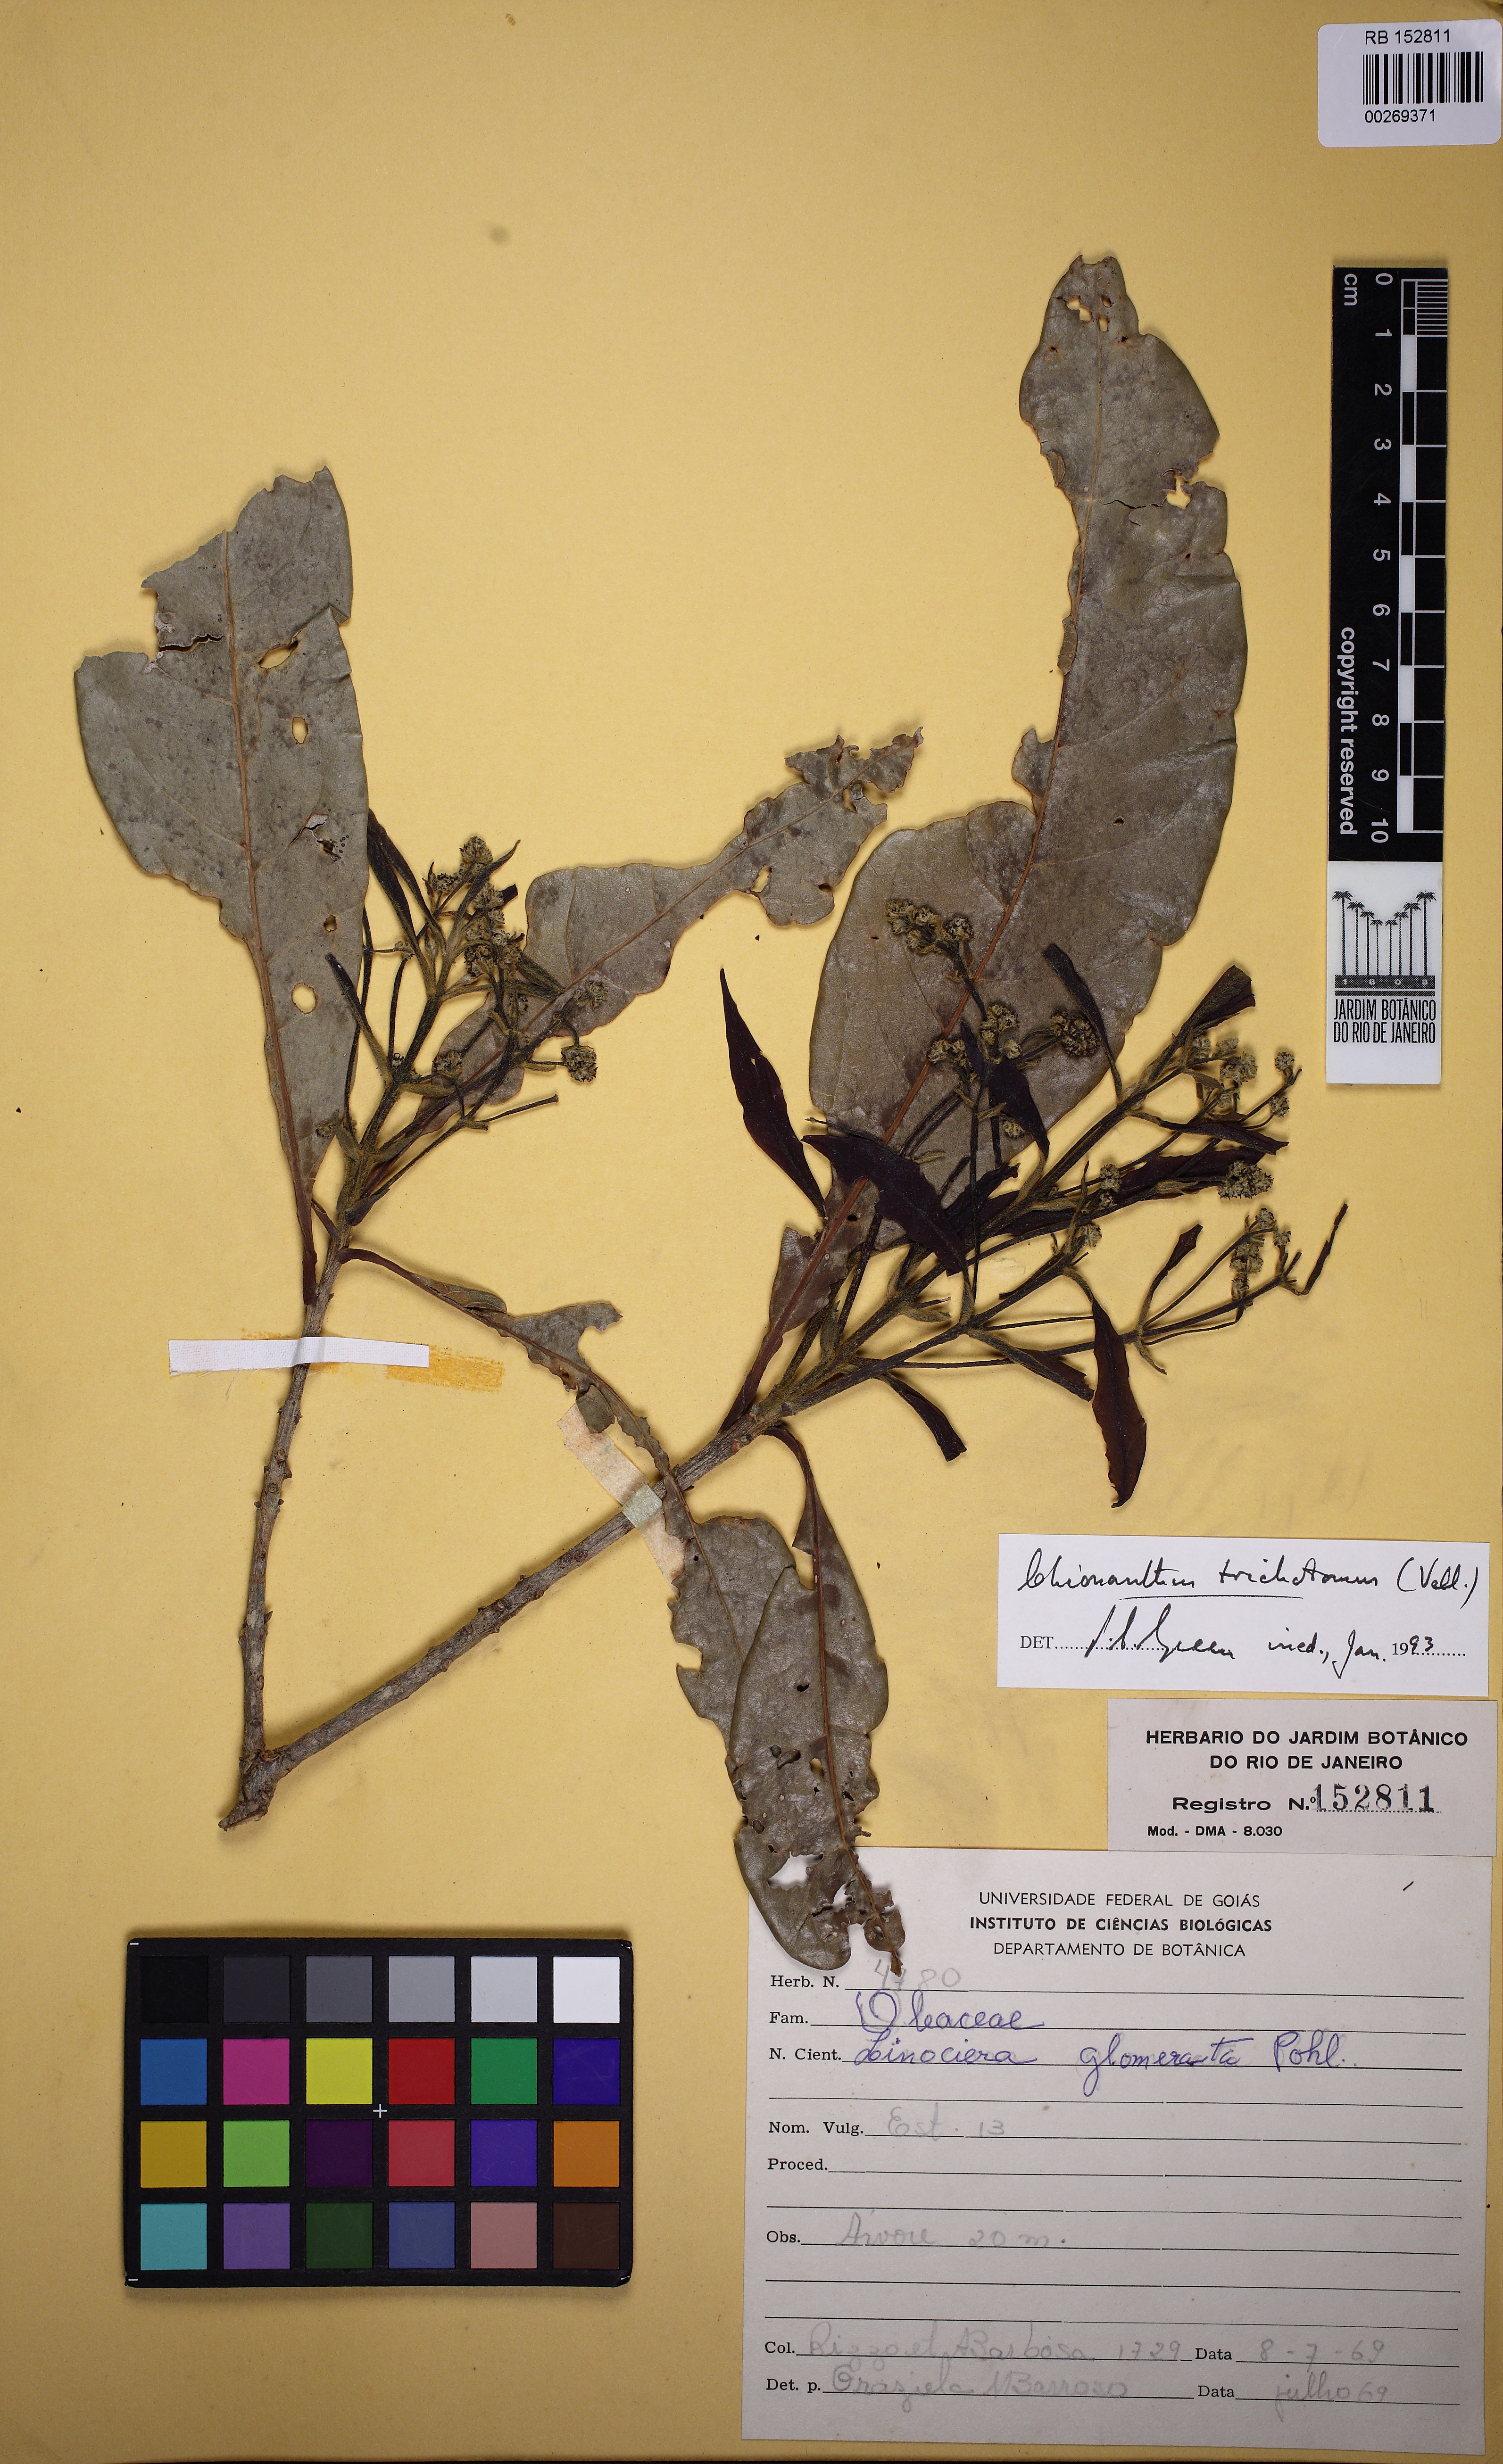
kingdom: Plantae
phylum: Tracheophyta
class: Magnoliopsida
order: Lamiales
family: Oleaceae
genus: Chionanthus
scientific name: Chionanthus trichotomus
